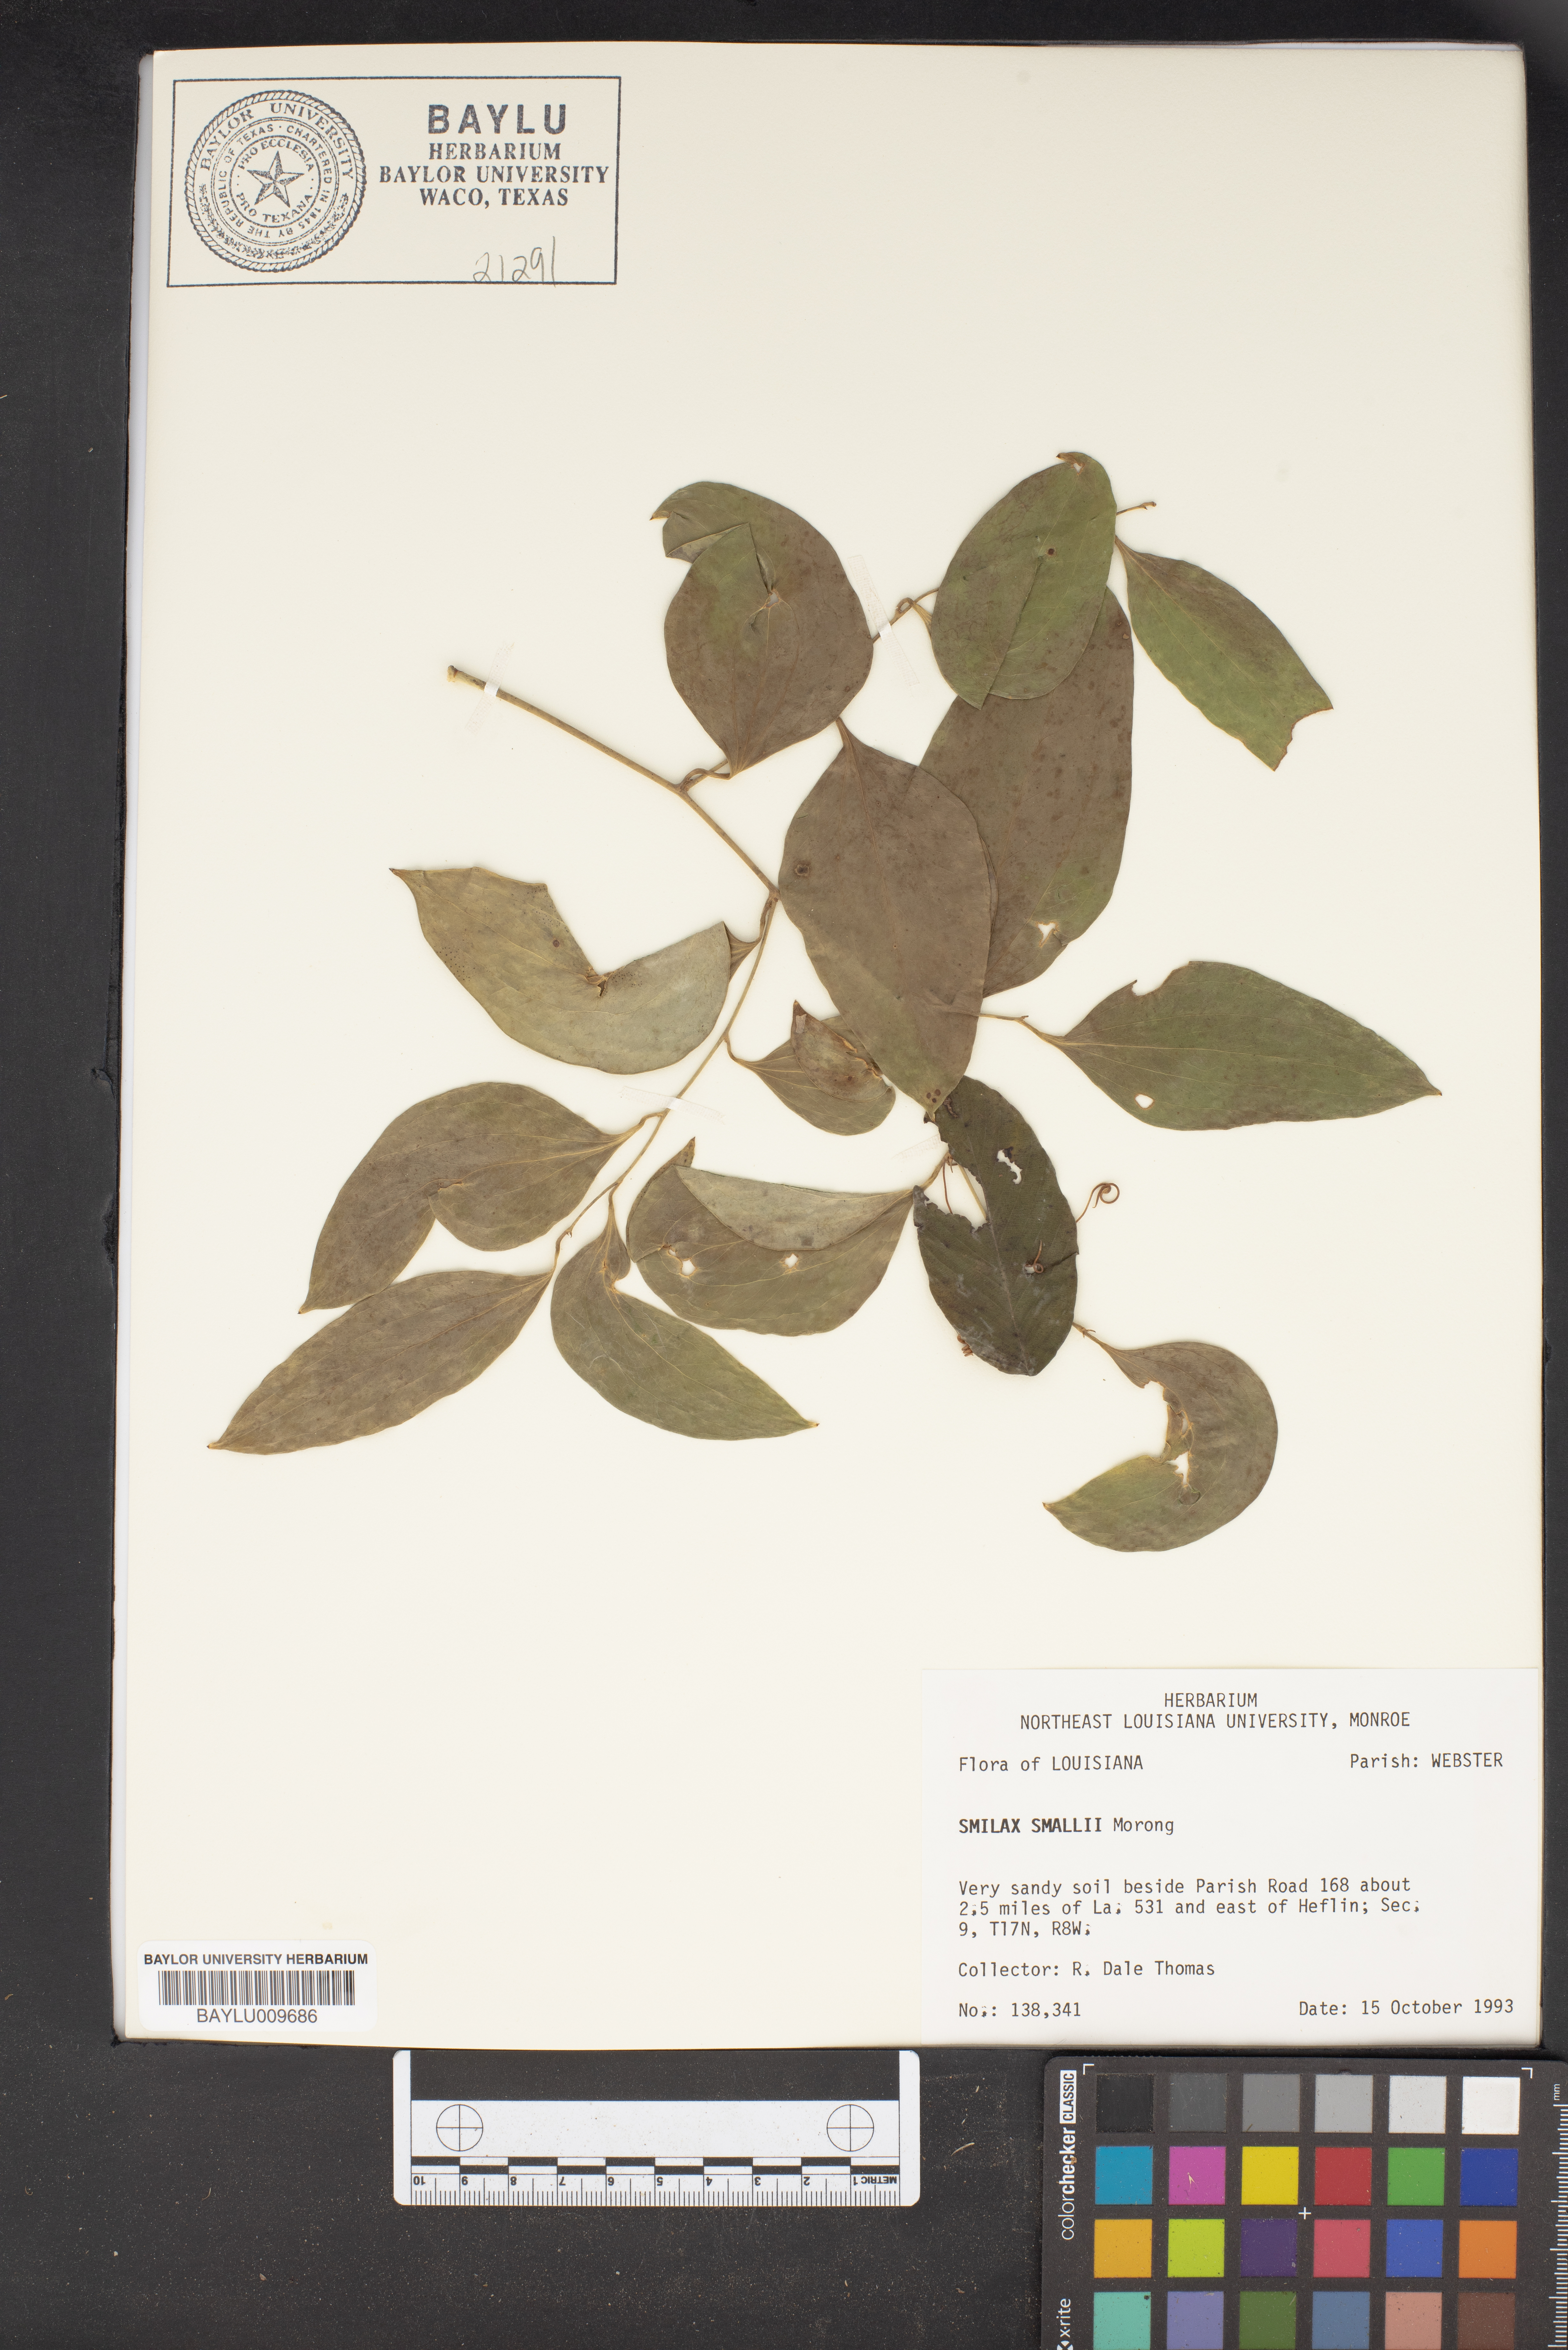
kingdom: Plantae
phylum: Tracheophyta
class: Liliopsida
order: Liliales
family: Smilacaceae
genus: Smilax
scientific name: Smilax maritima
